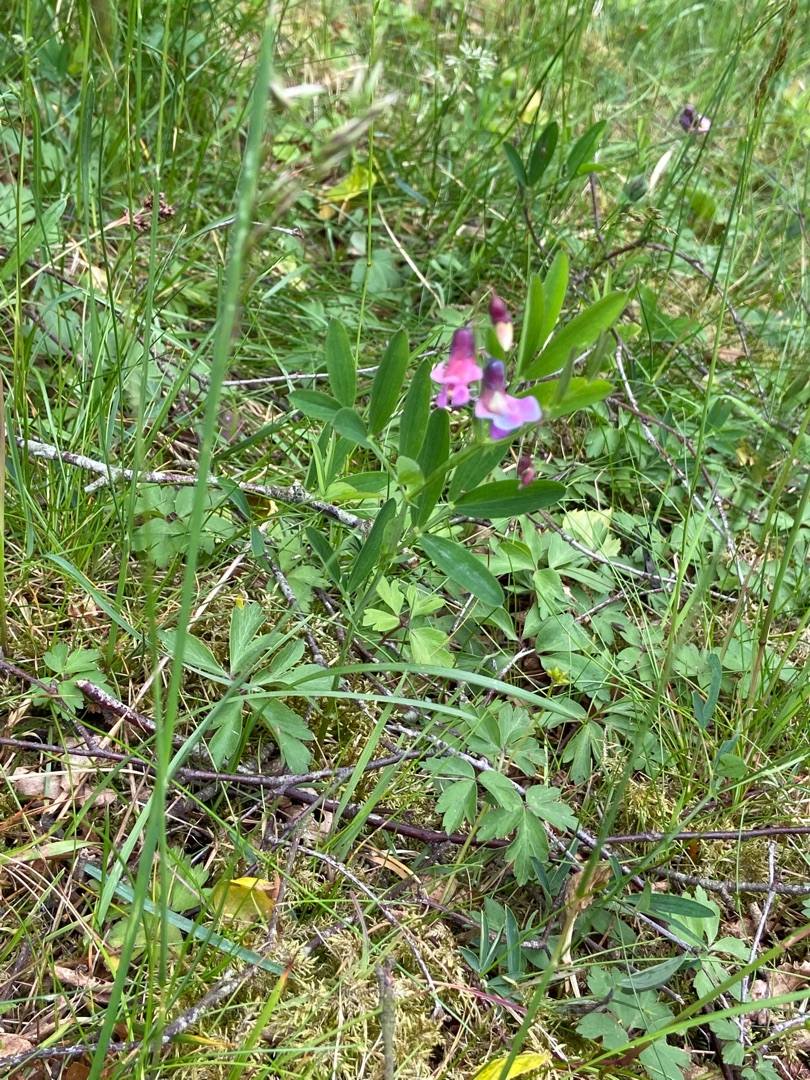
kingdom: Plantae
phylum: Tracheophyta
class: Magnoliopsida
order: Fabales
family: Fabaceae
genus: Lathyrus
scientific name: Lathyrus linifolius
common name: Krat-fladbælg
